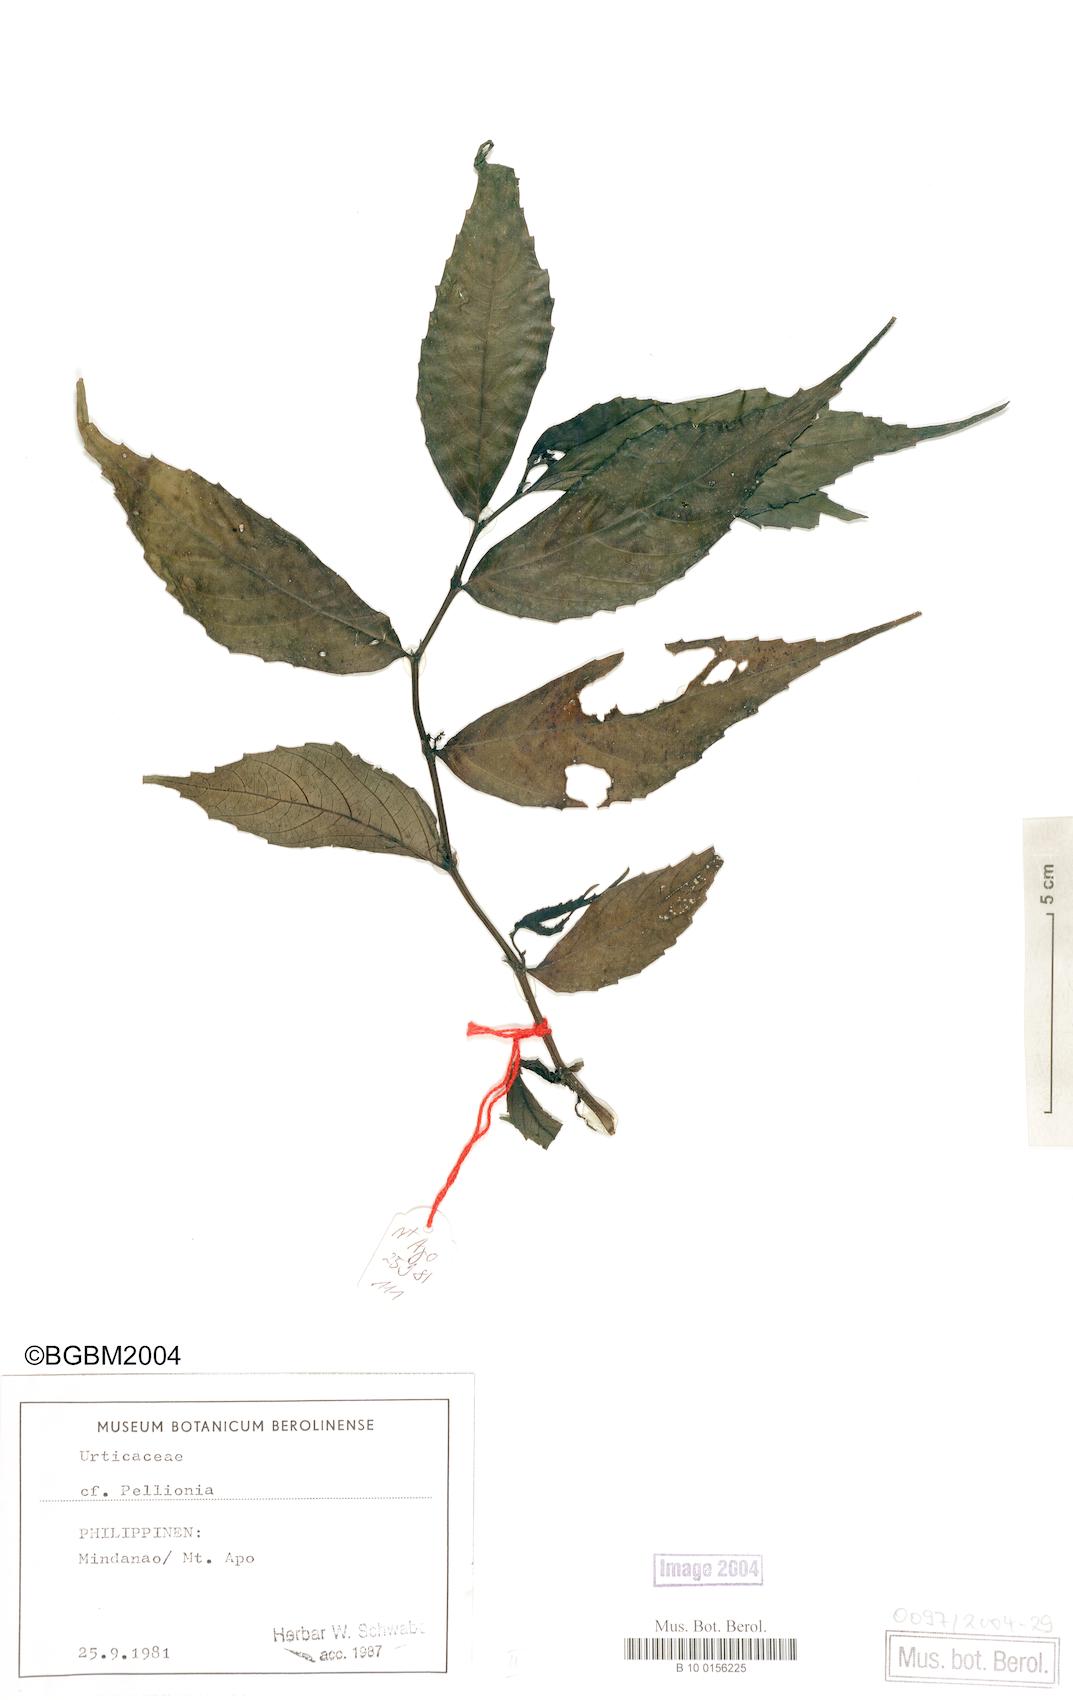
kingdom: Plantae
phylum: Tracheophyta
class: Magnoliopsida
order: Rosales
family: Urticaceae
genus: Pellionia
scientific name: Pellionia
